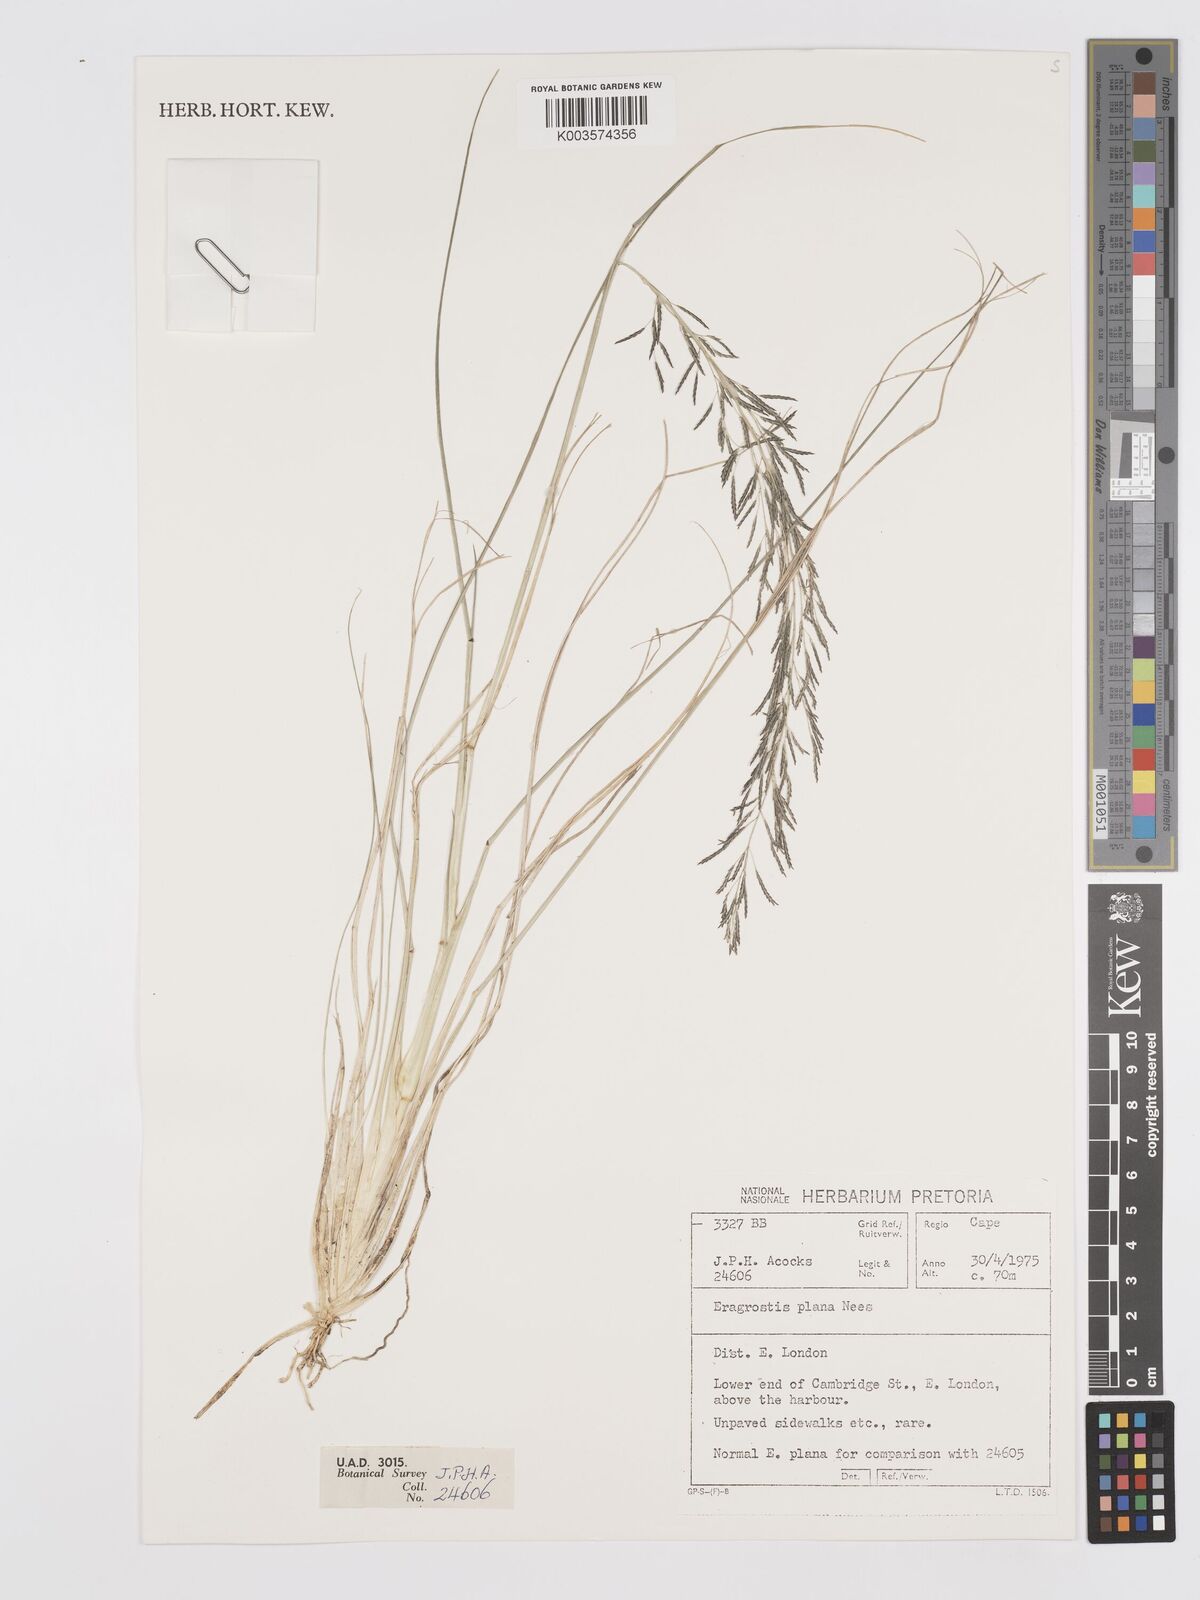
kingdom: Plantae
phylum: Tracheophyta
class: Liliopsida
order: Poales
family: Poaceae
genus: Eragrostis
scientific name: Eragrostis plana
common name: South african lovegrass
